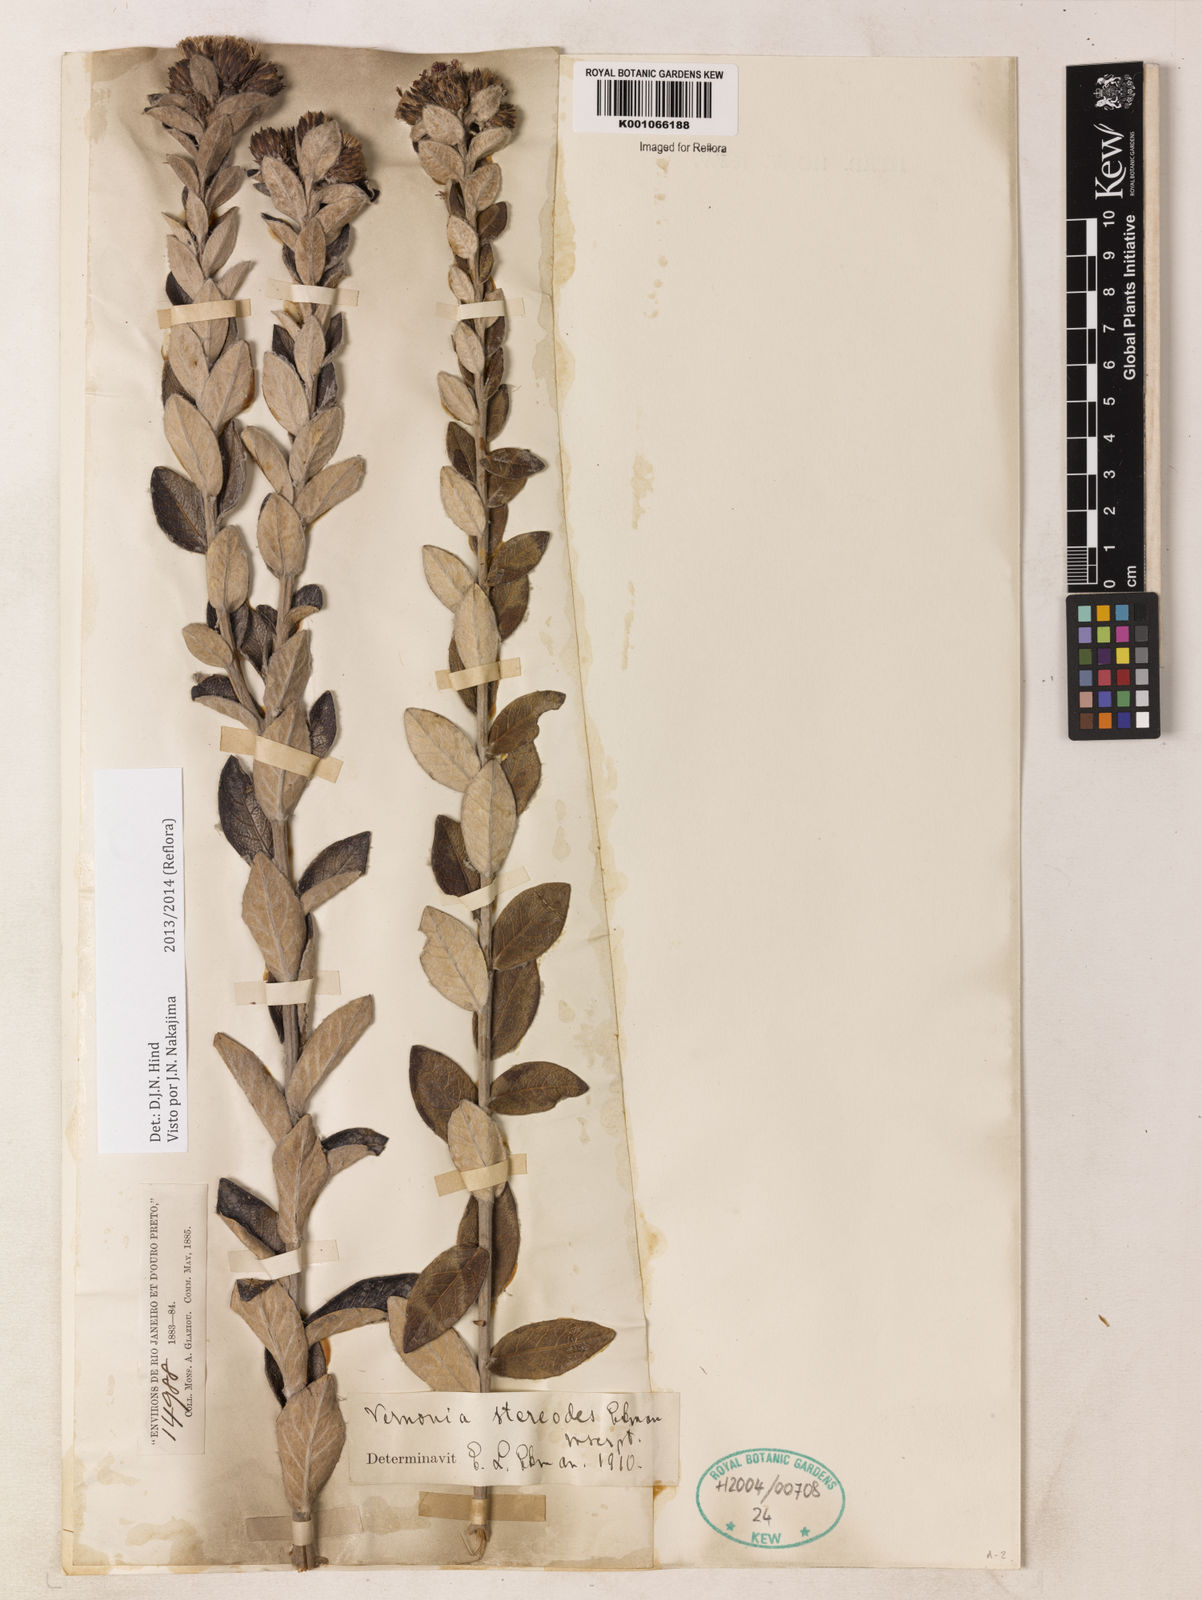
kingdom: Plantae
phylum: Tracheophyta
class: Magnoliopsida
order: Asterales
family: Asteraceae
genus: Vernonia
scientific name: Vernonia
